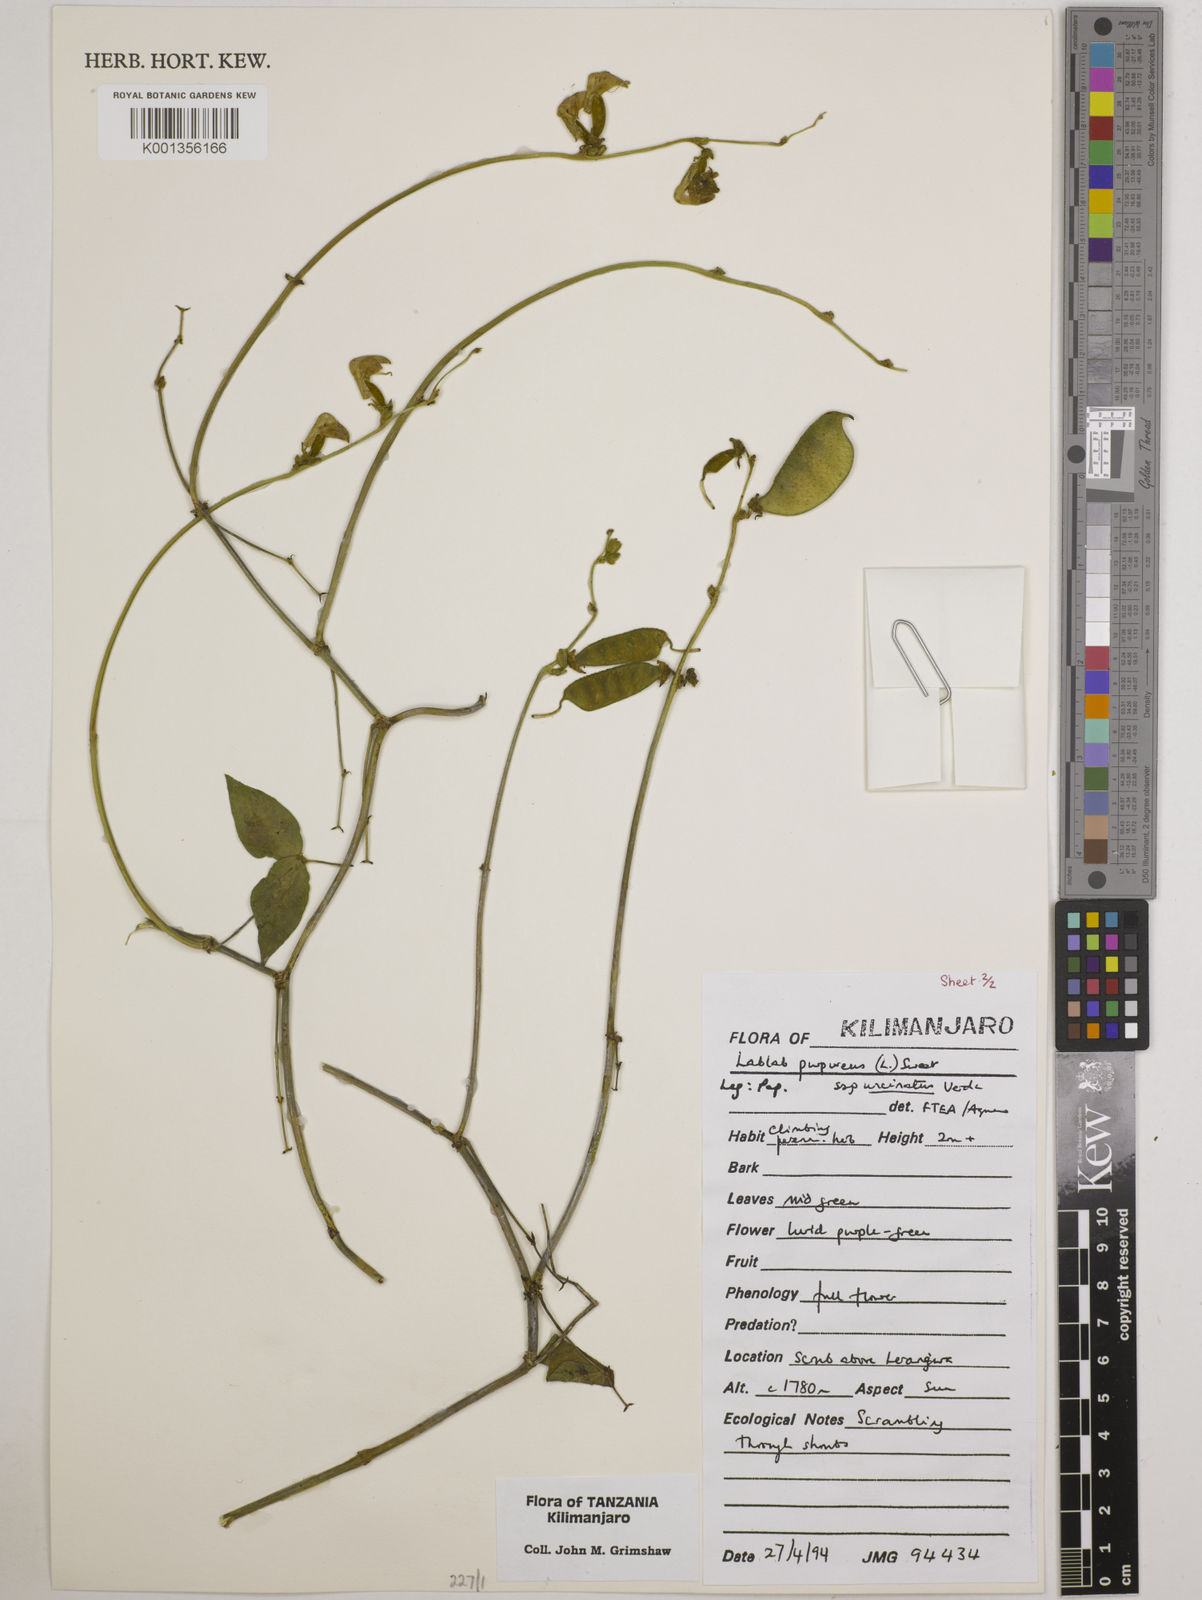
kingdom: Plantae
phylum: Tracheophyta
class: Magnoliopsida
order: Fabales
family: Fabaceae
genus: Lablab
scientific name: Lablab purpureus
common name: Lablab-bean
